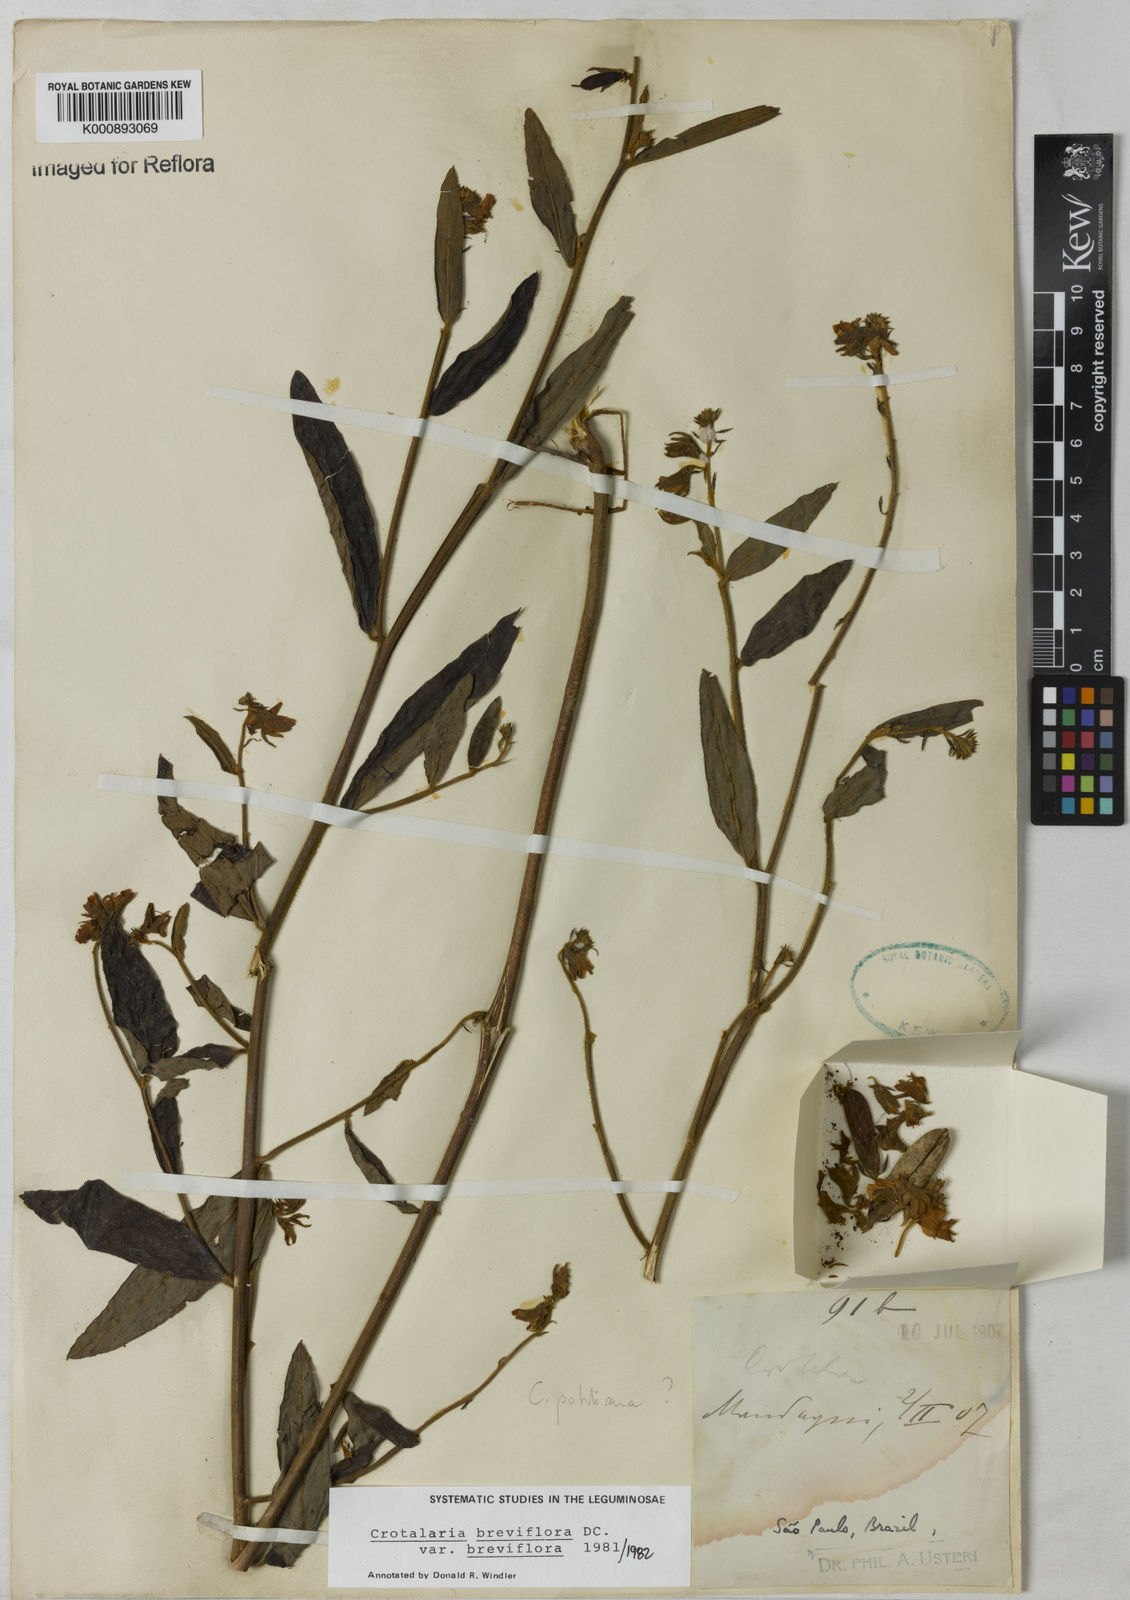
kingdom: Plantae
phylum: Tracheophyta
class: Magnoliopsida
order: Fabales
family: Fabaceae
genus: Crotalaria
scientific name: Crotalaria breviflora
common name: Short-flower crotalaria
